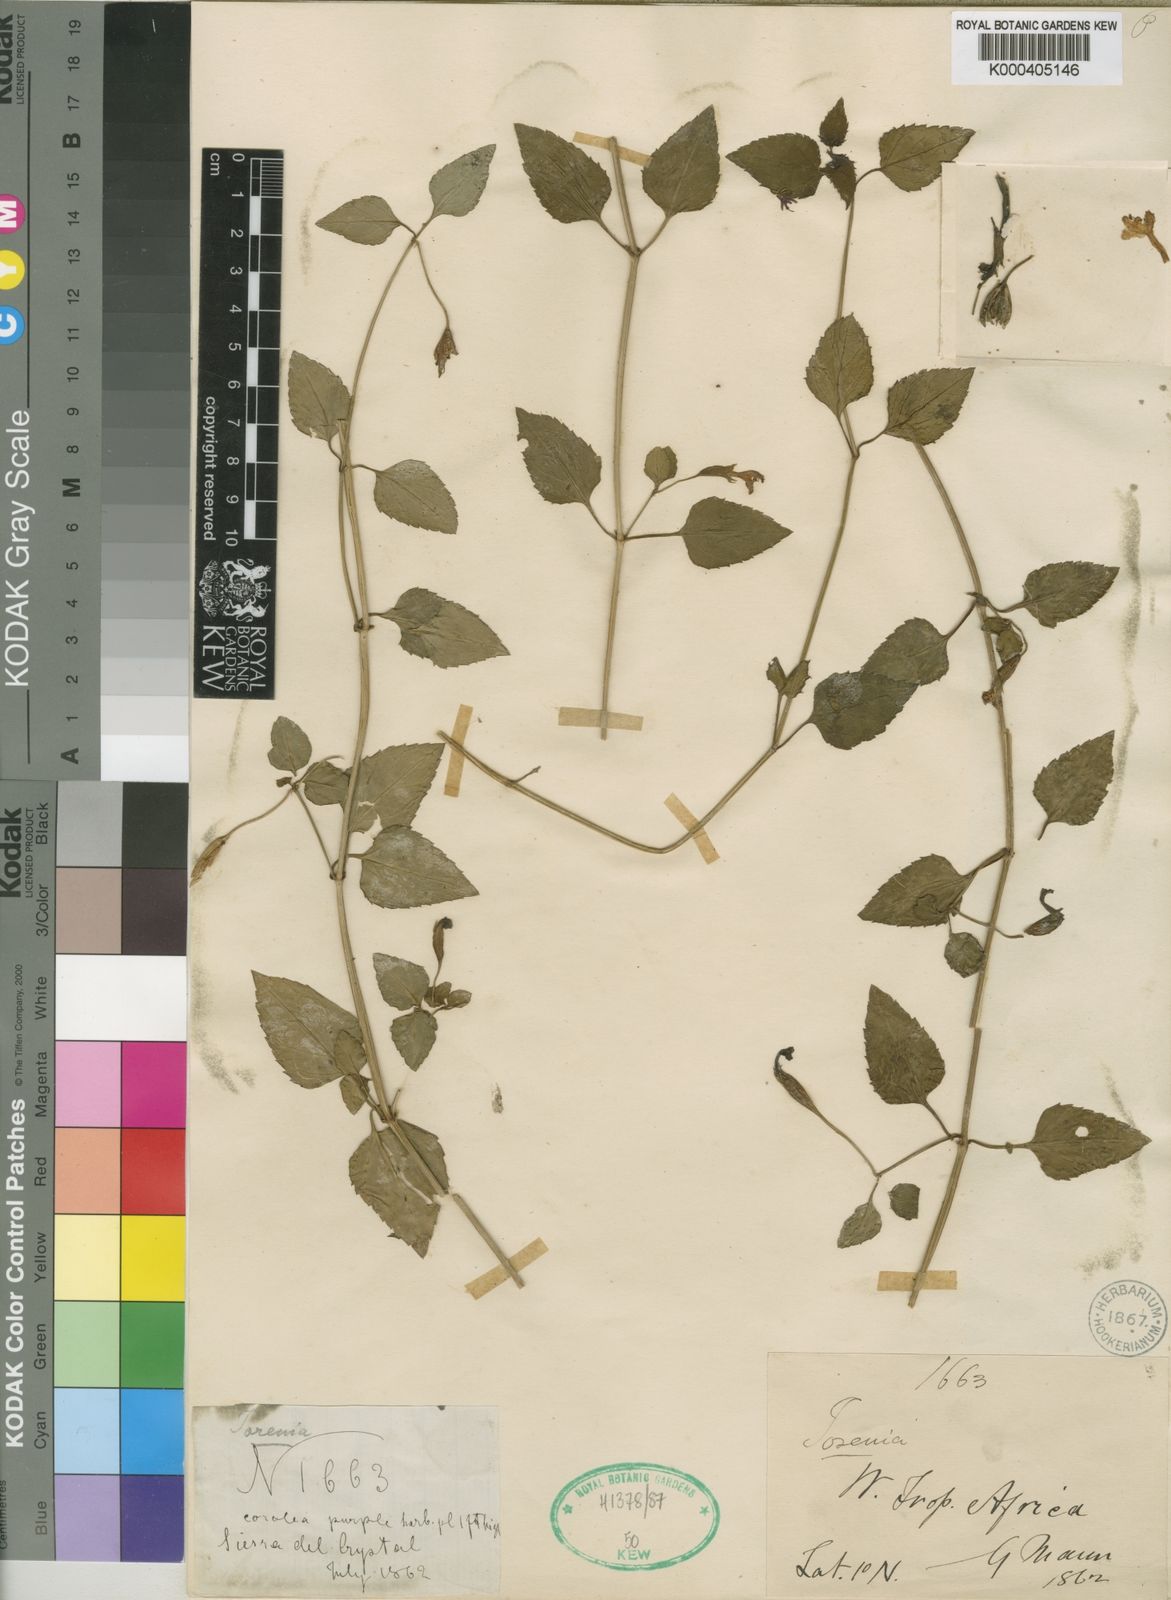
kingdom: Plantae
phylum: Tracheophyta
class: Magnoliopsida
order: Lamiales
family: Linderniaceae
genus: Torenia
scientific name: Torenia mannii
